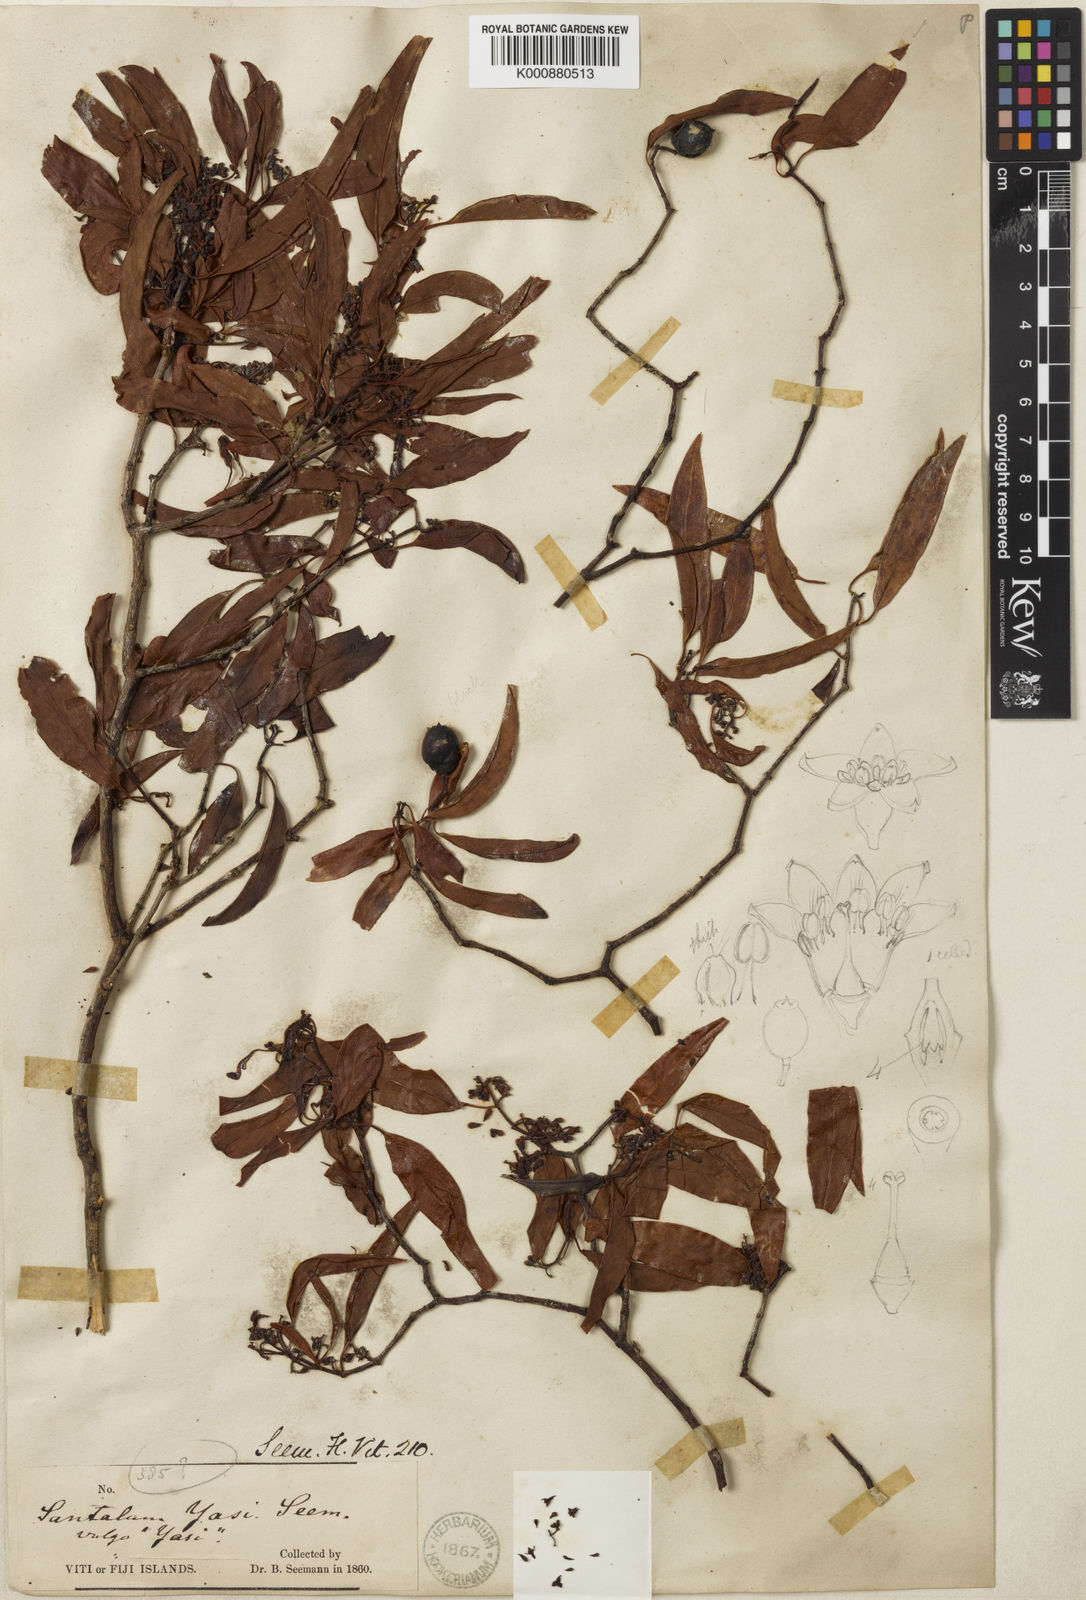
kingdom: Plantae
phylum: Tracheophyta
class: Magnoliopsida
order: Santalales
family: Santalaceae
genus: Santalum
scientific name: Santalum yasi
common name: Yasi
